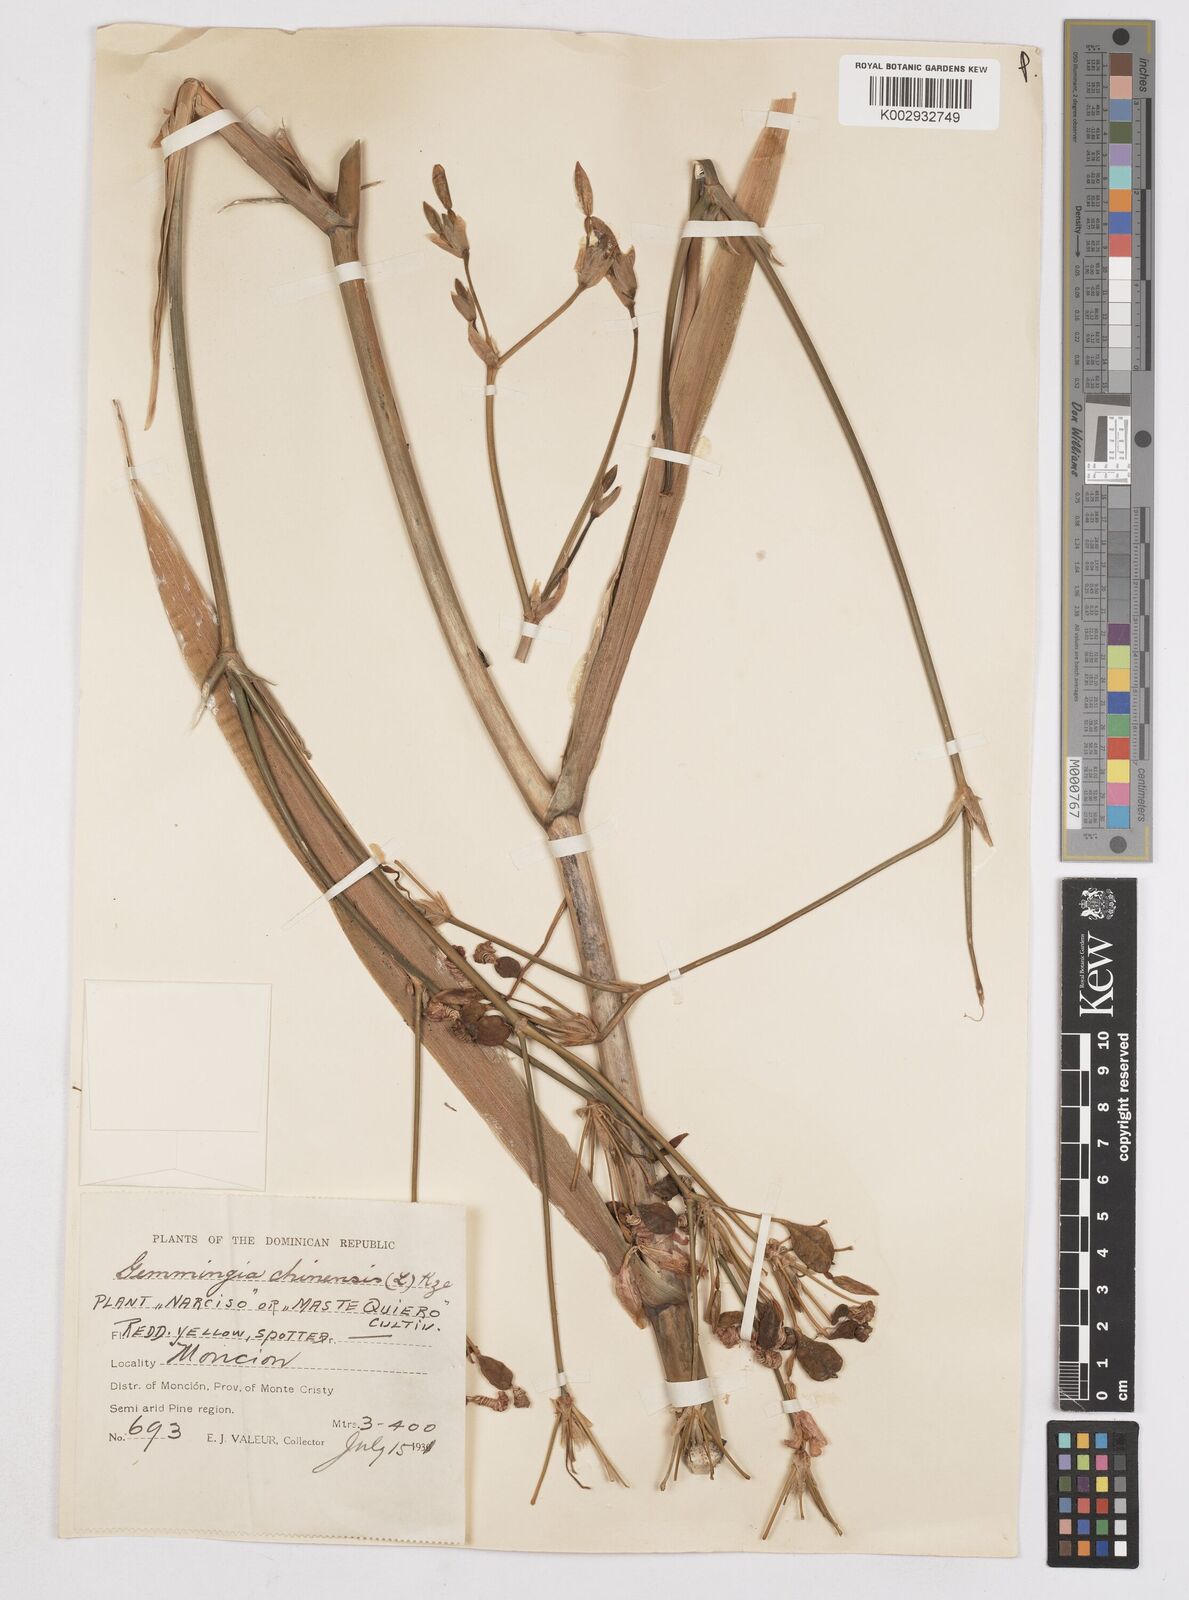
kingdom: Plantae
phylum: Tracheophyta
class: Liliopsida
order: Asparagales
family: Iridaceae
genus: Iris
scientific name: Iris
